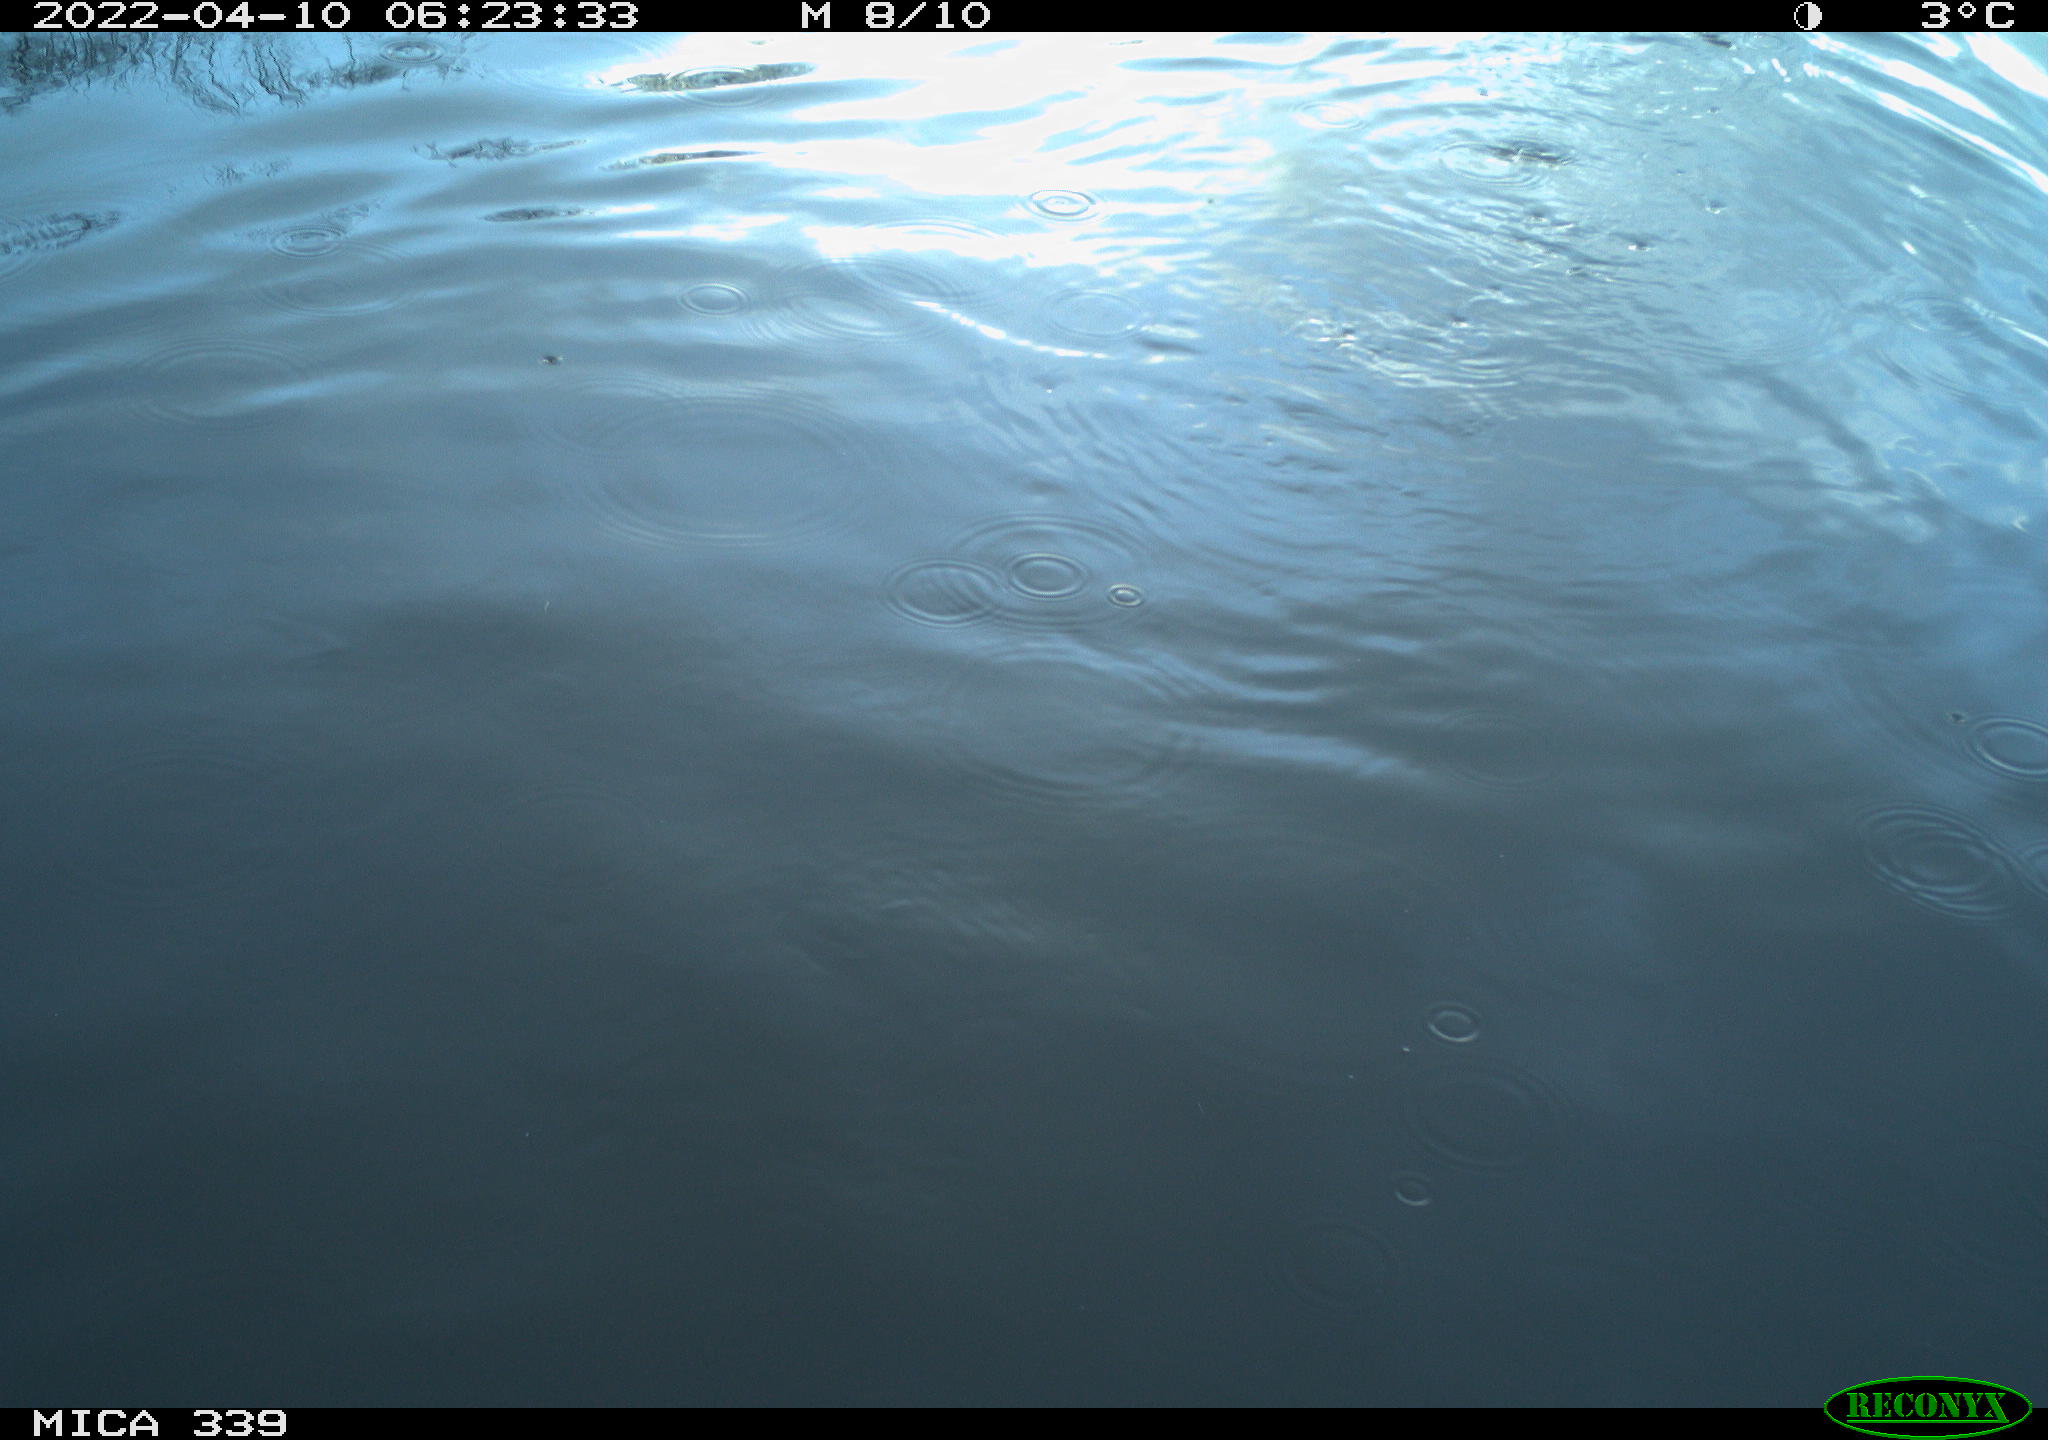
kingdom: Animalia
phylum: Chordata
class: Aves
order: Suliformes
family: Phalacrocoracidae
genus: Phalacrocorax
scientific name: Phalacrocorax carbo
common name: Great cormorant
